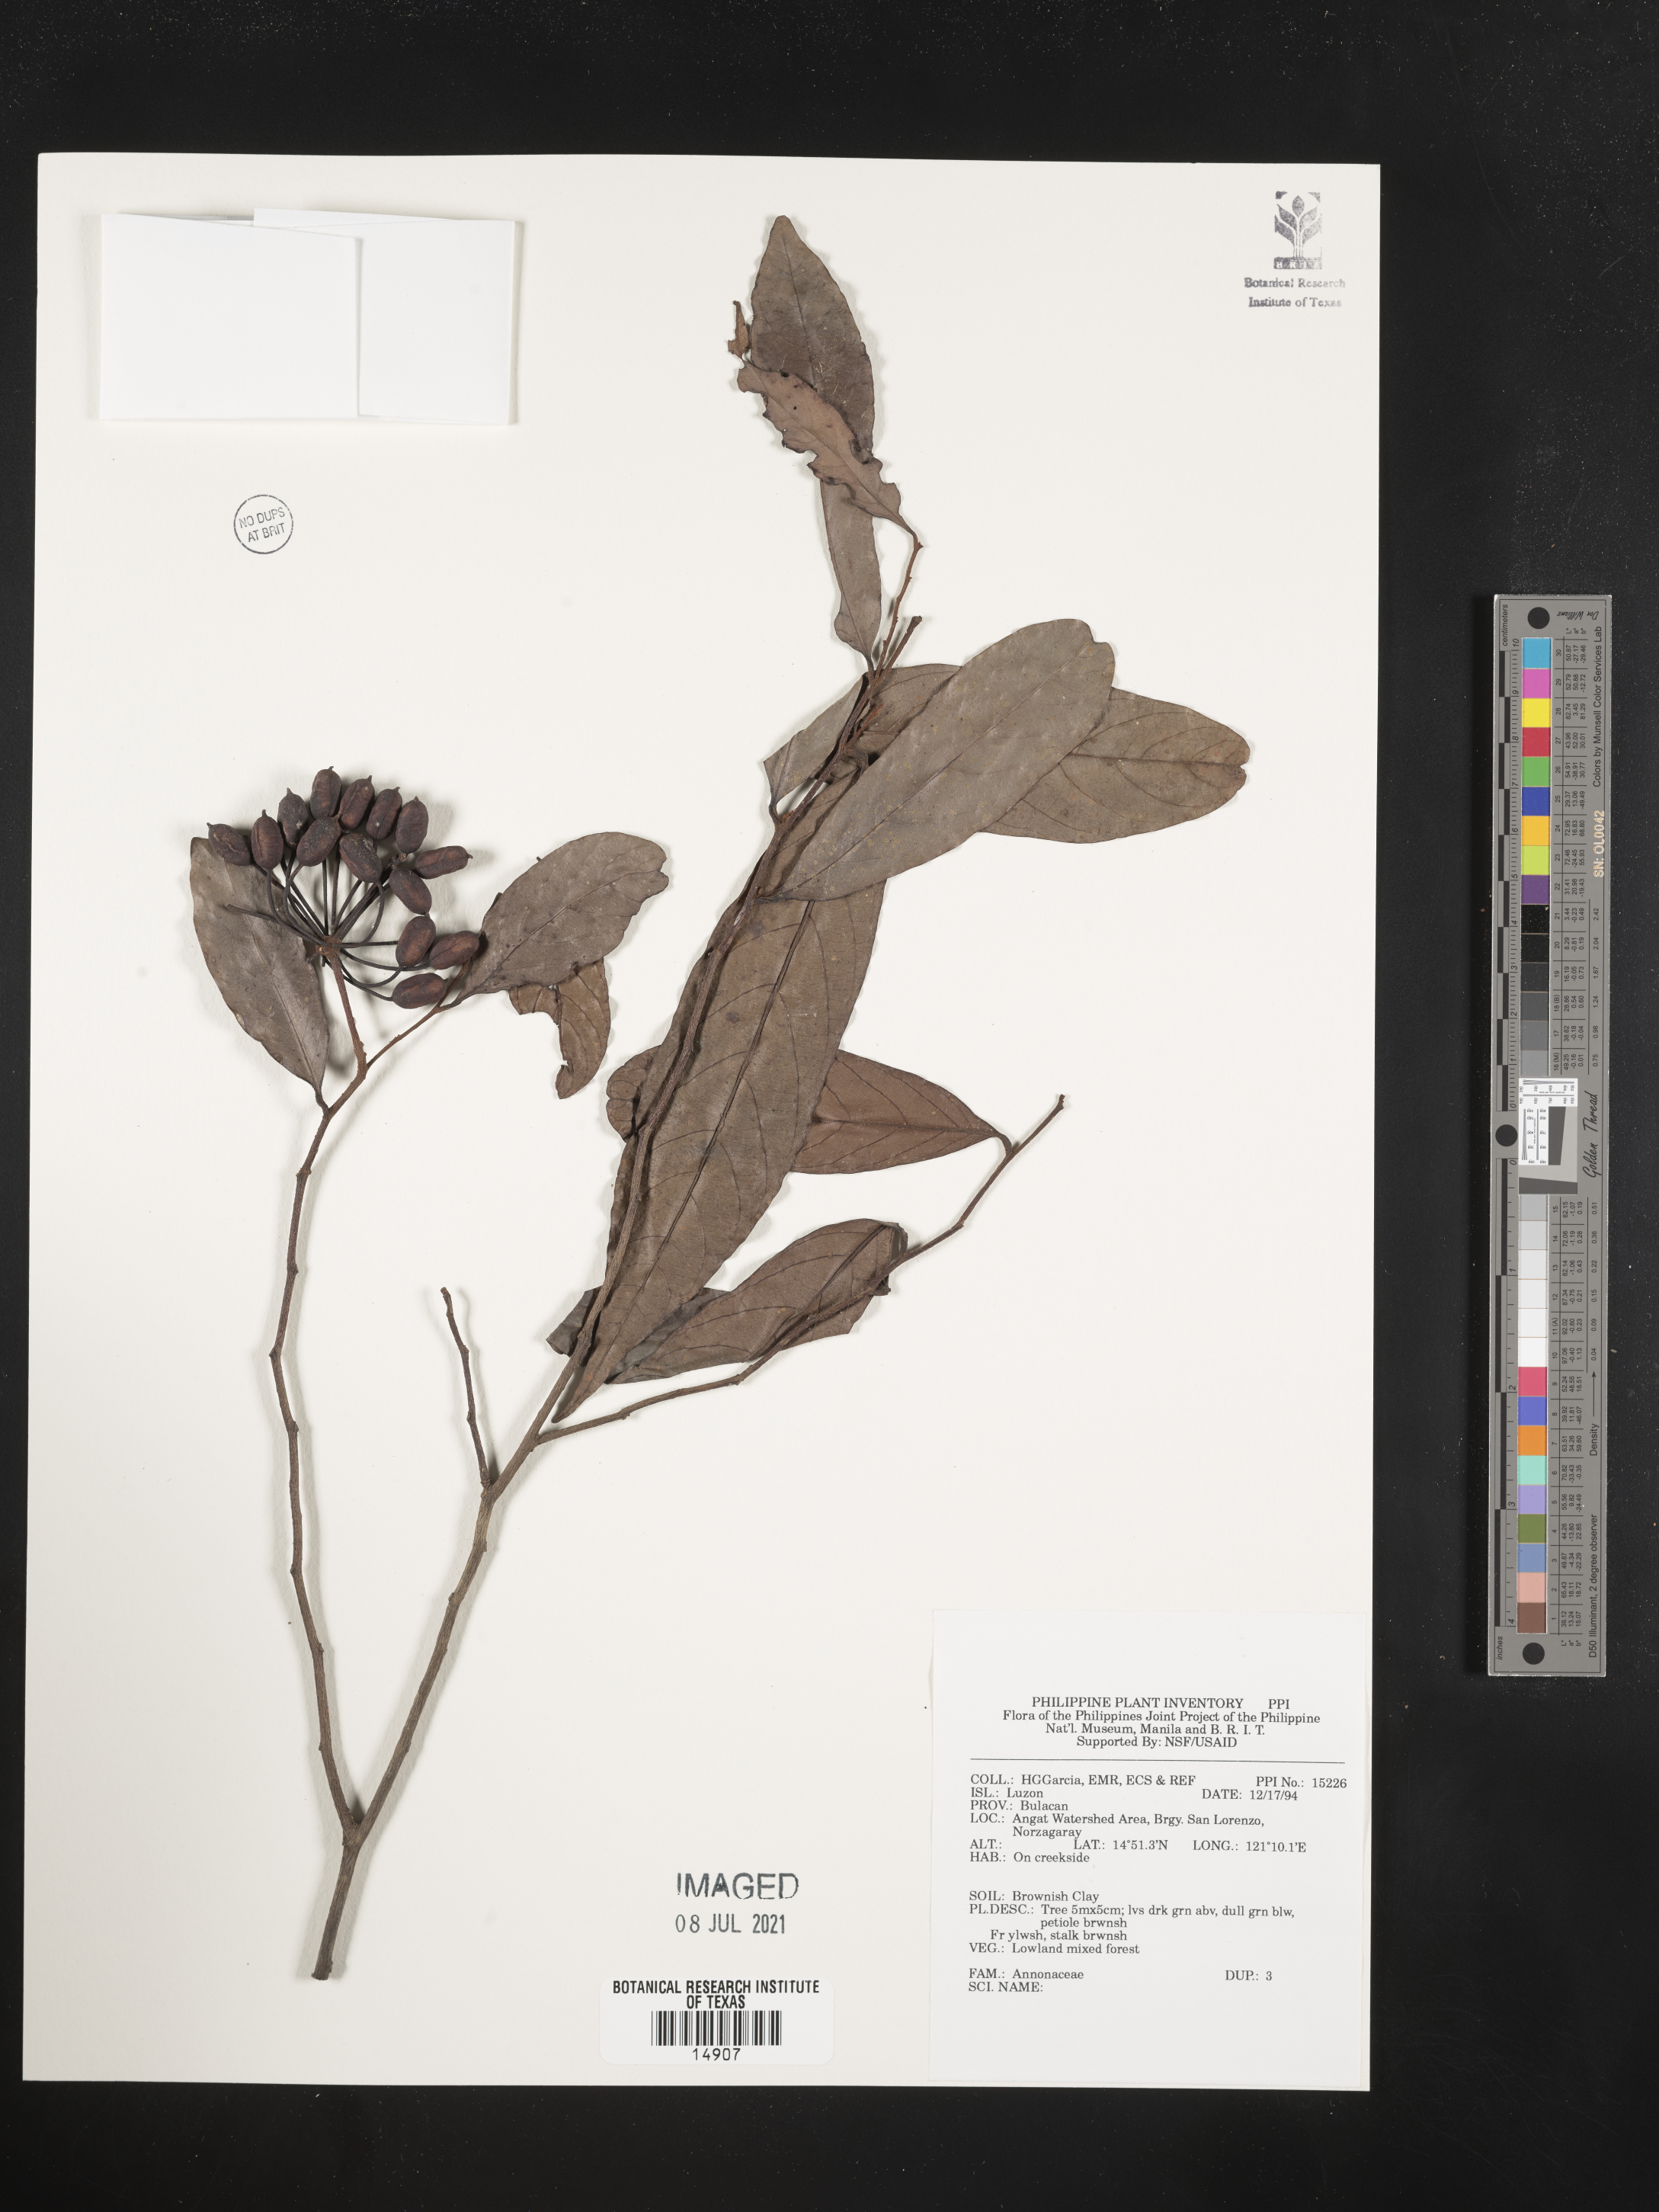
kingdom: Plantae
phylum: Tracheophyta
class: Magnoliopsida
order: Magnoliales
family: Annonaceae
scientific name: Annonaceae
